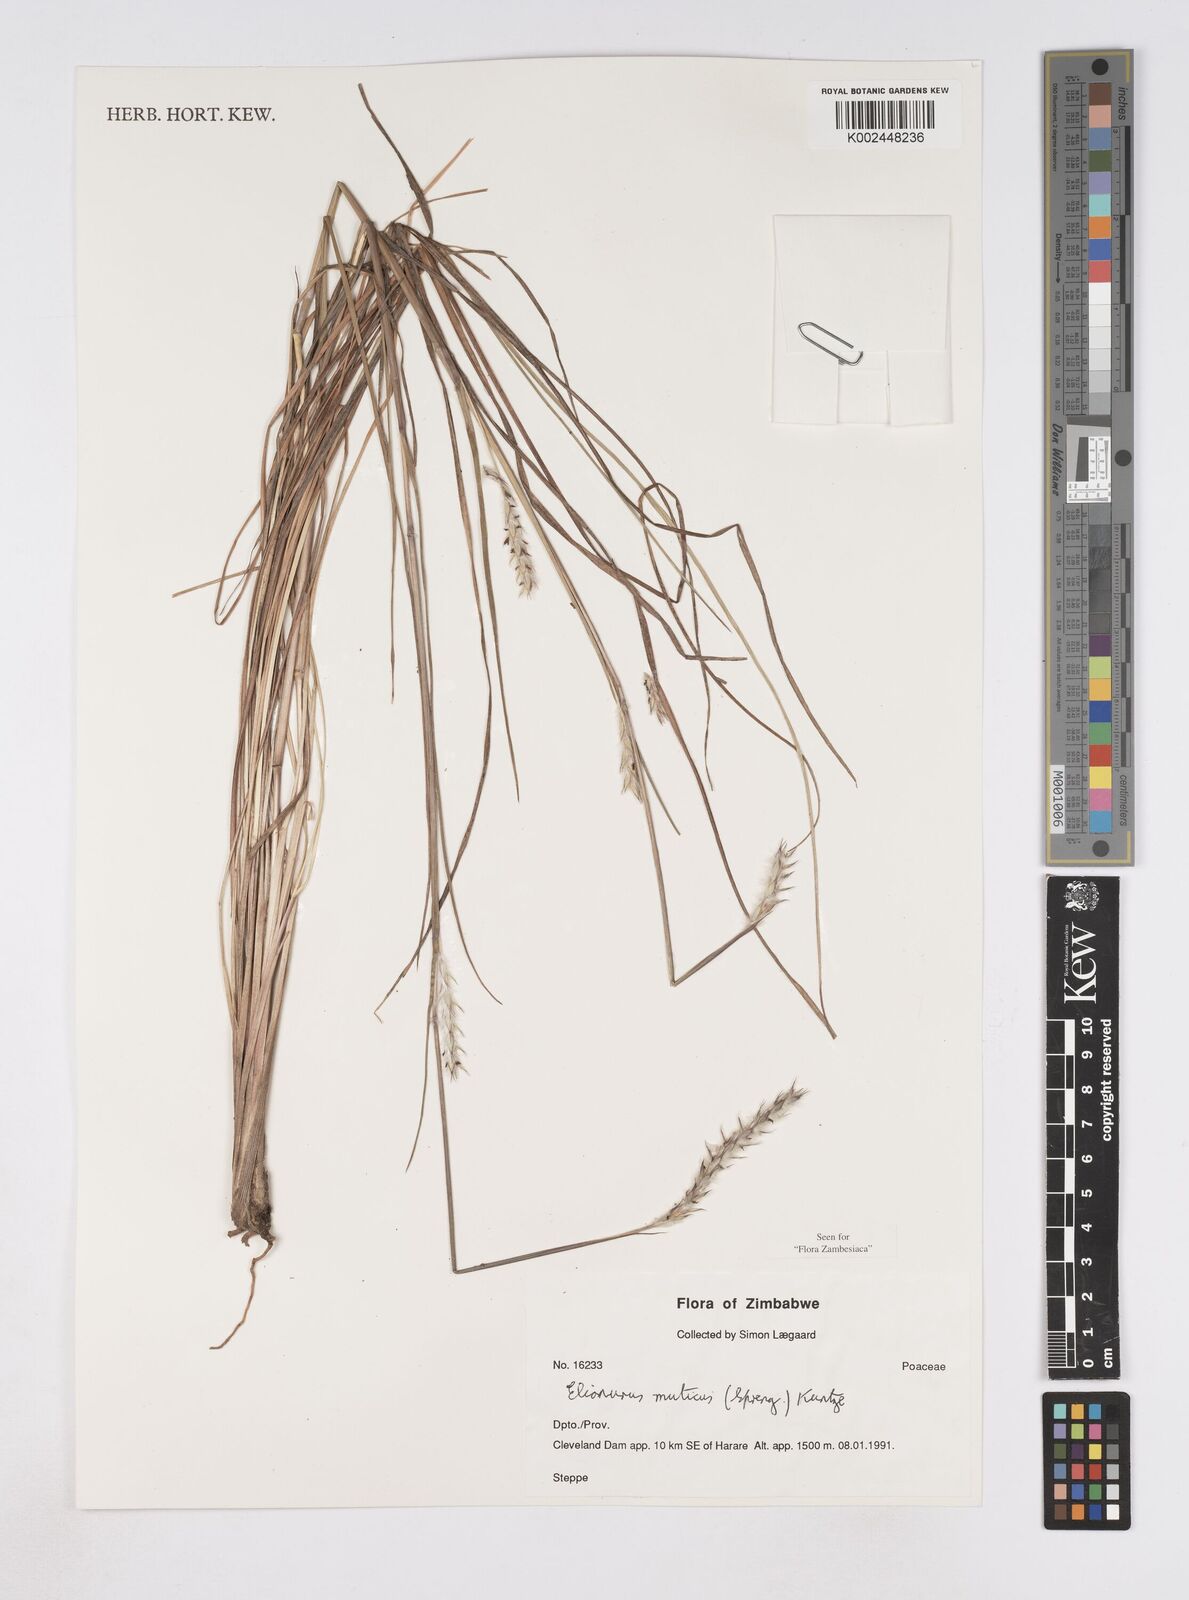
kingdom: Plantae
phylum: Tracheophyta
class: Liliopsida
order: Poales
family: Poaceae
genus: Elionurus
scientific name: Elionurus muticus
